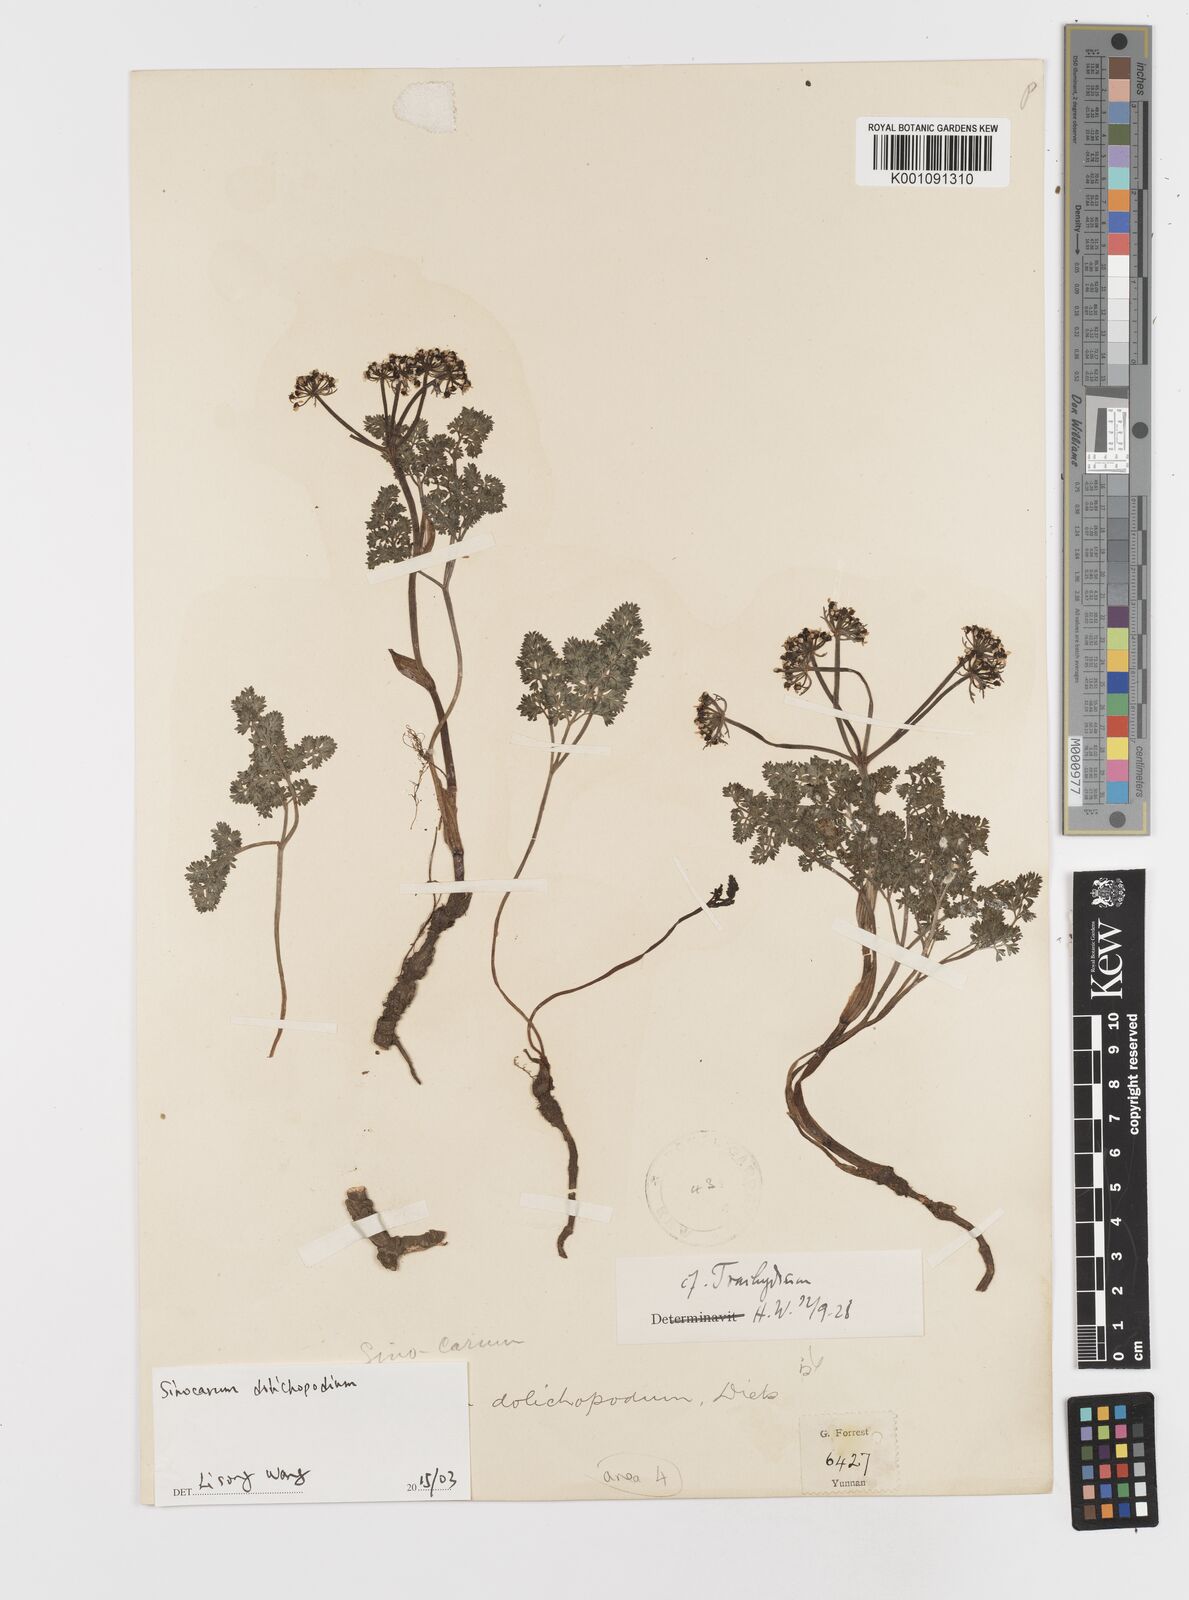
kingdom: Plantae
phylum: Tracheophyta
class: Magnoliopsida
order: Apiales
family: Apiaceae
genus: Sinocarum
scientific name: Sinocarum dolichopodum
